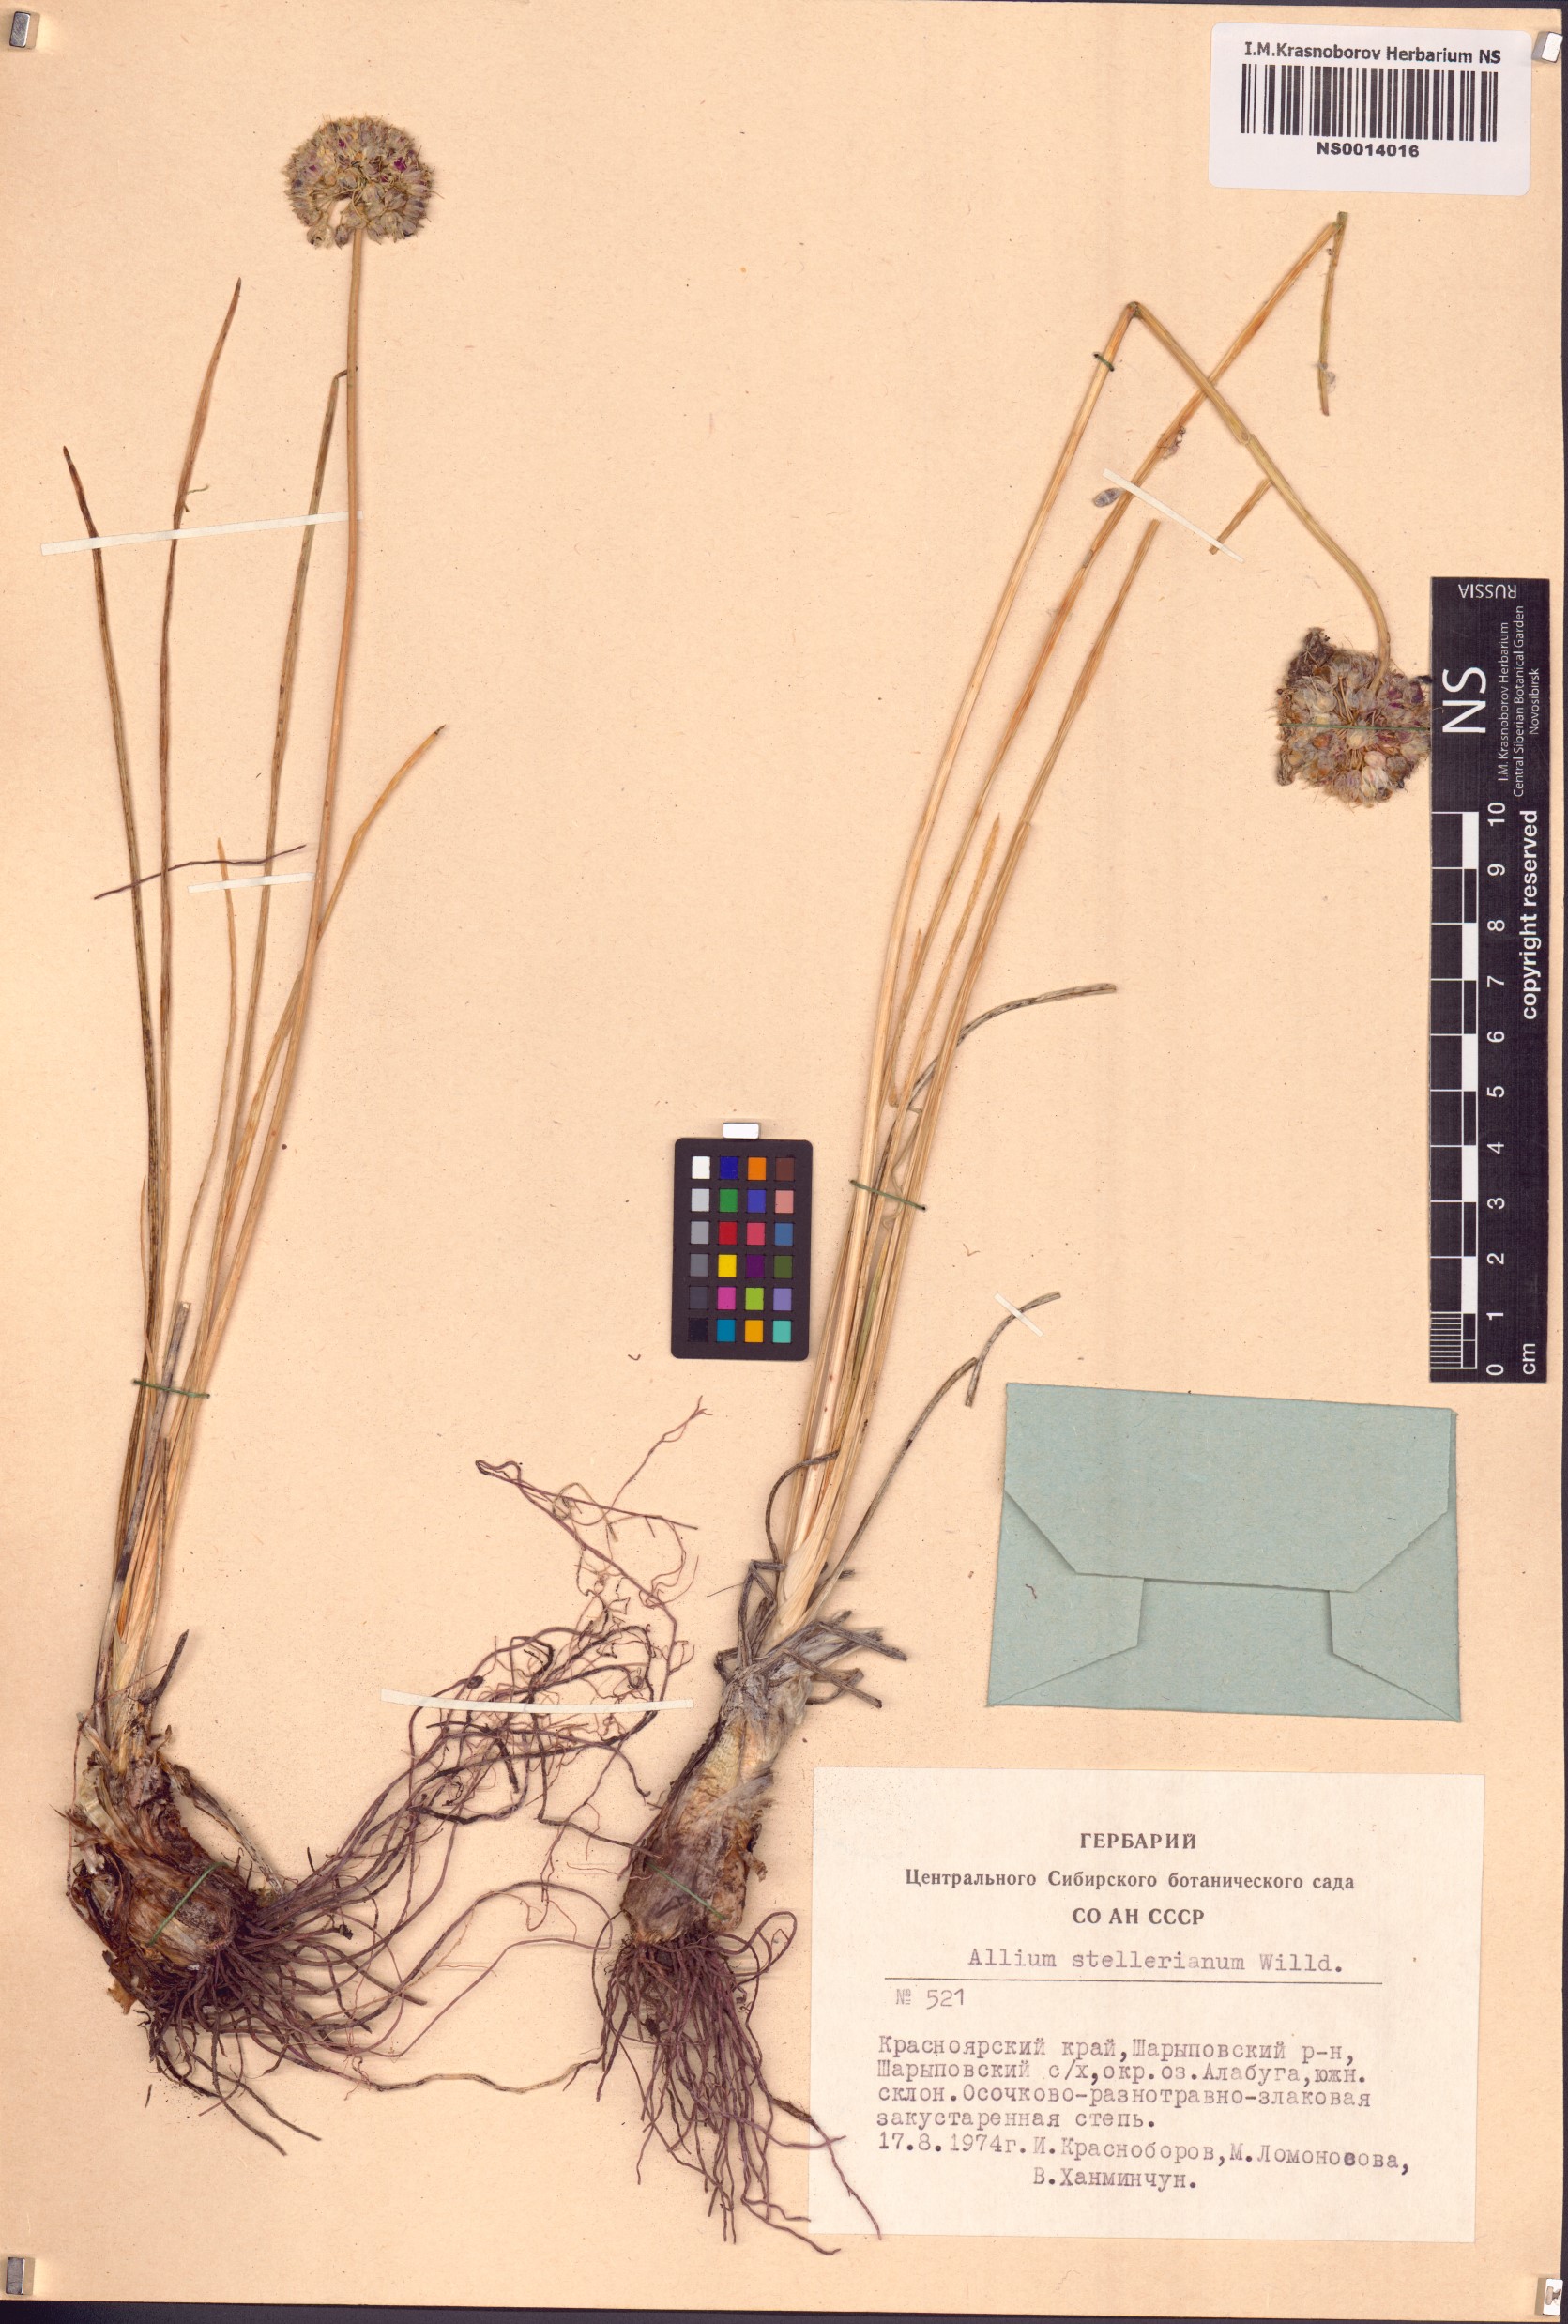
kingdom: Plantae
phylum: Tracheophyta
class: Liliopsida
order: Asparagales
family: Amaryllidaceae
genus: Allium
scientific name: Allium stellerianum
